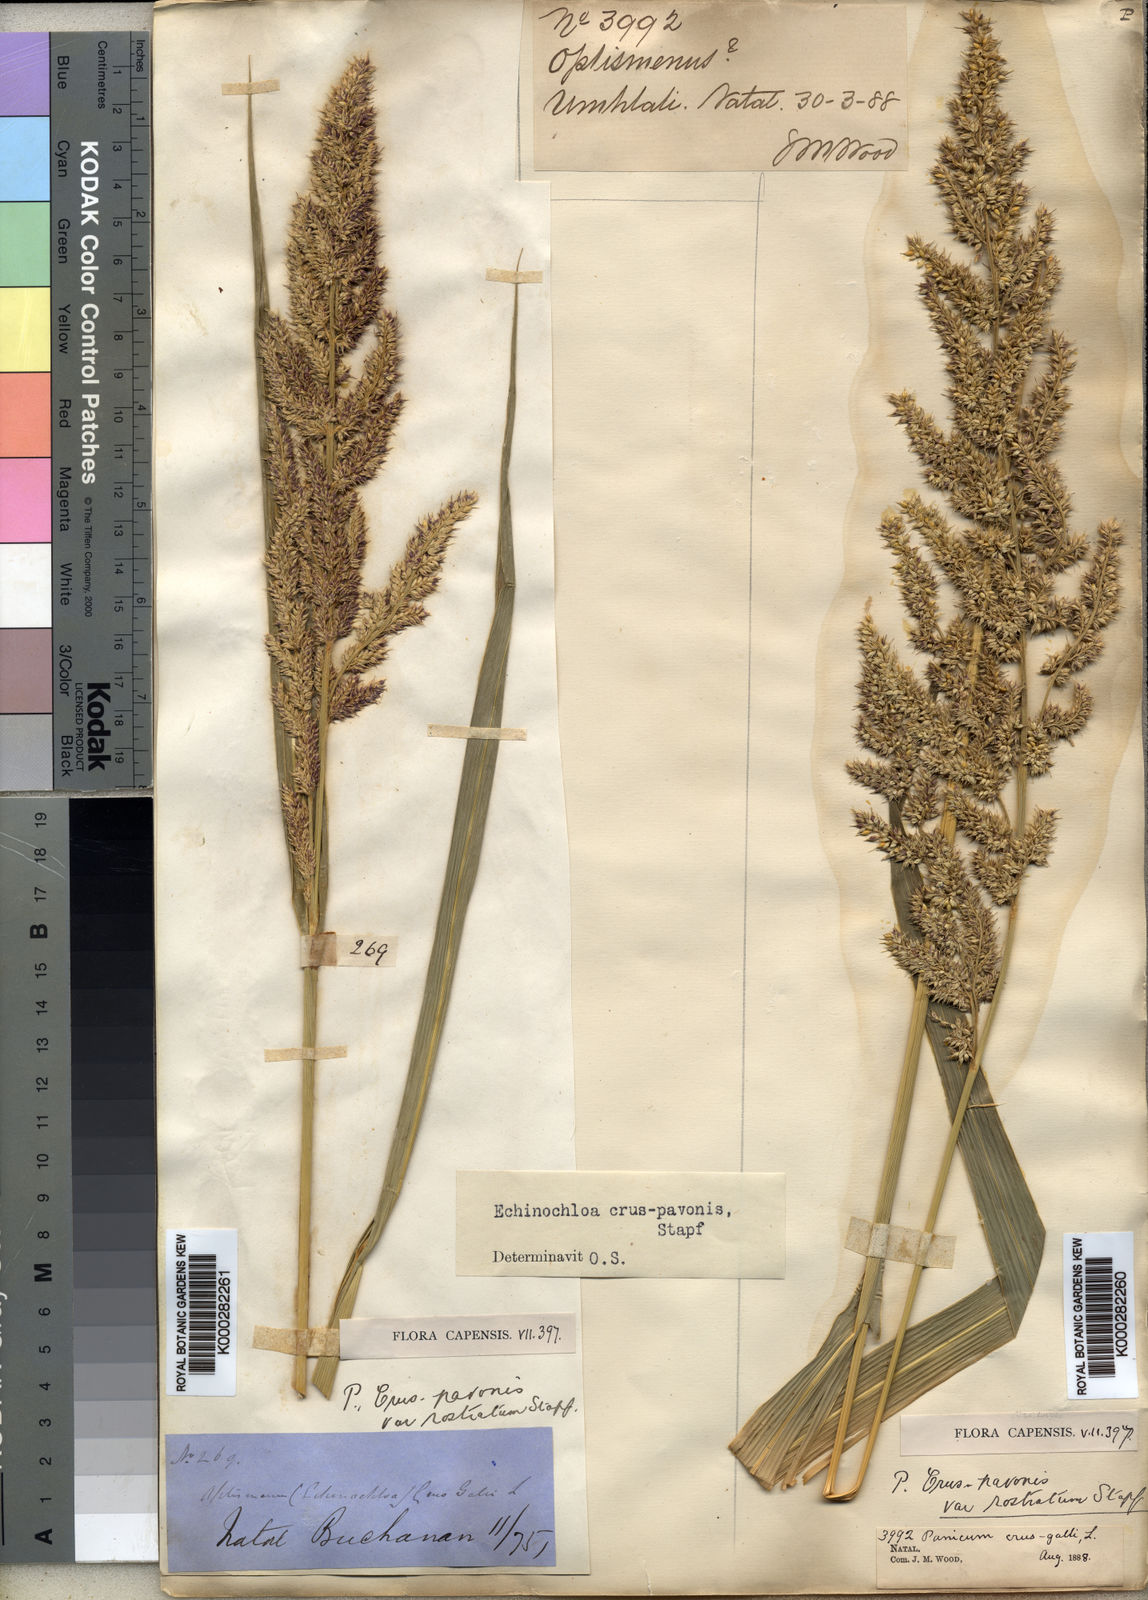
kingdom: Plantae
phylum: Tracheophyta
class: Liliopsida
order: Poales
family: Poaceae
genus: Echinochloa
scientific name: Echinochloa
